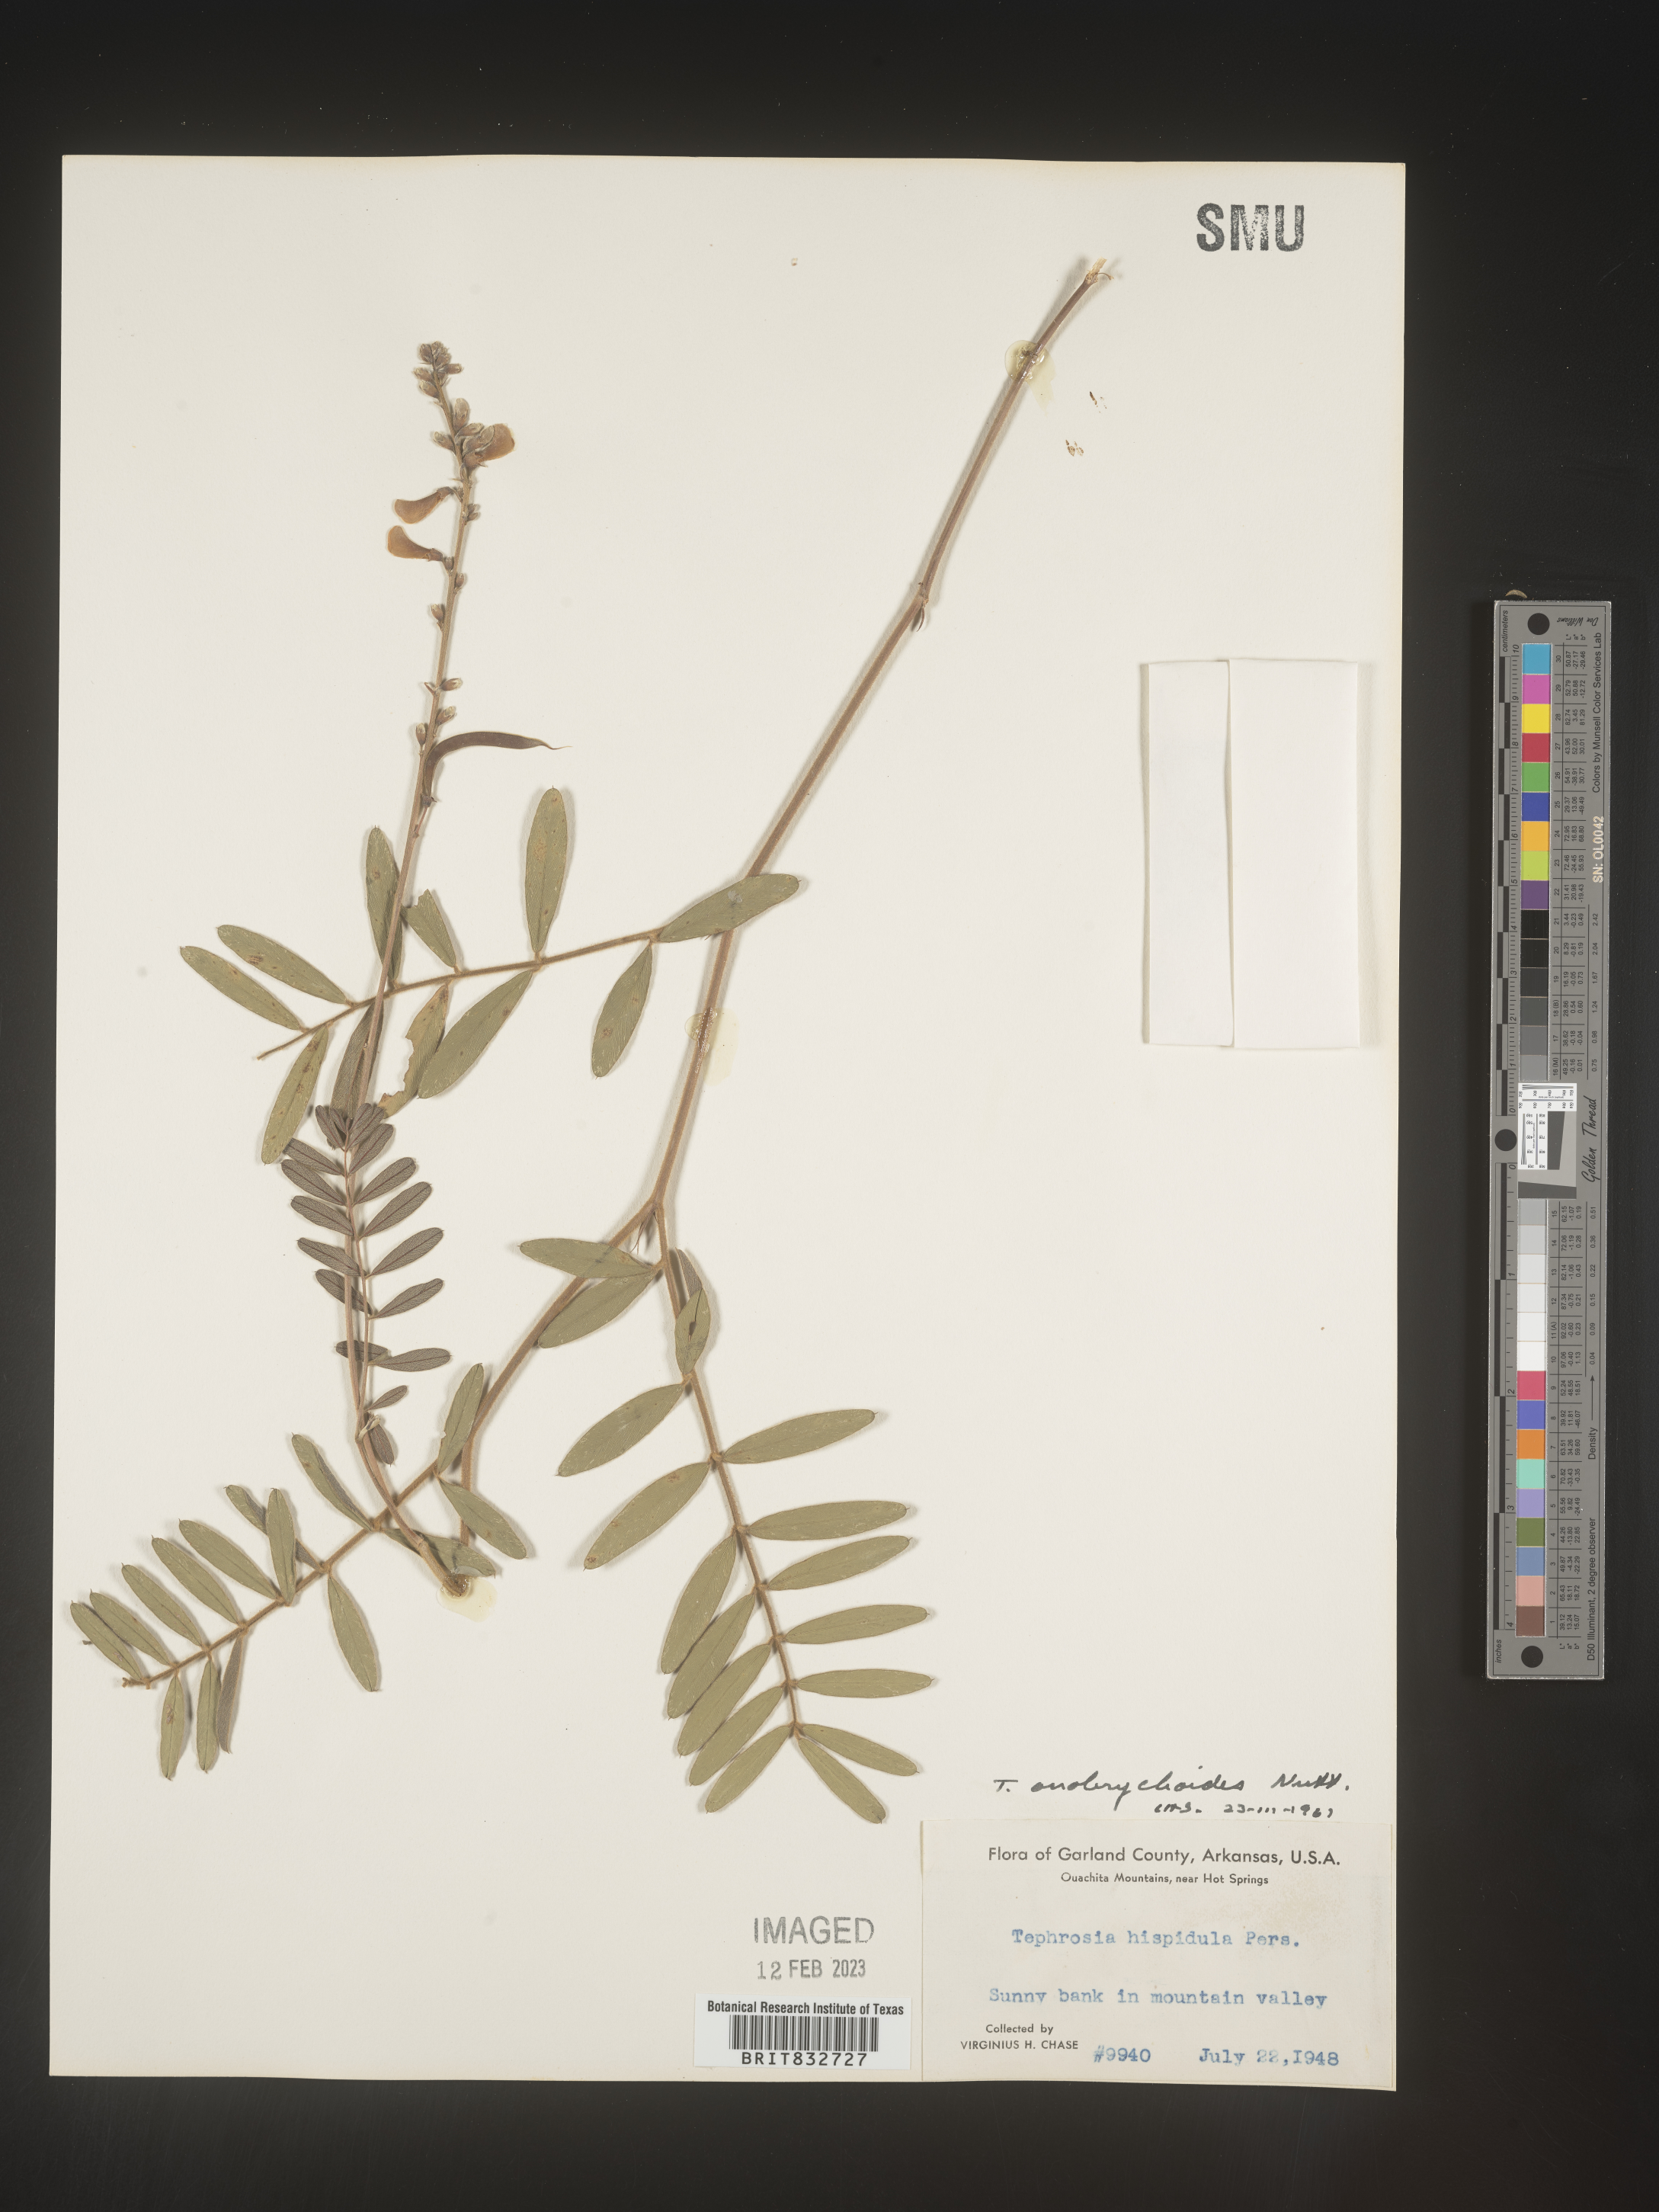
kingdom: Plantae
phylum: Tracheophyta
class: Magnoliopsida
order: Fabales
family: Fabaceae
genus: Tephrosia
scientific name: Tephrosia onobrychoides
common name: Multi-bloom hoary-pea
